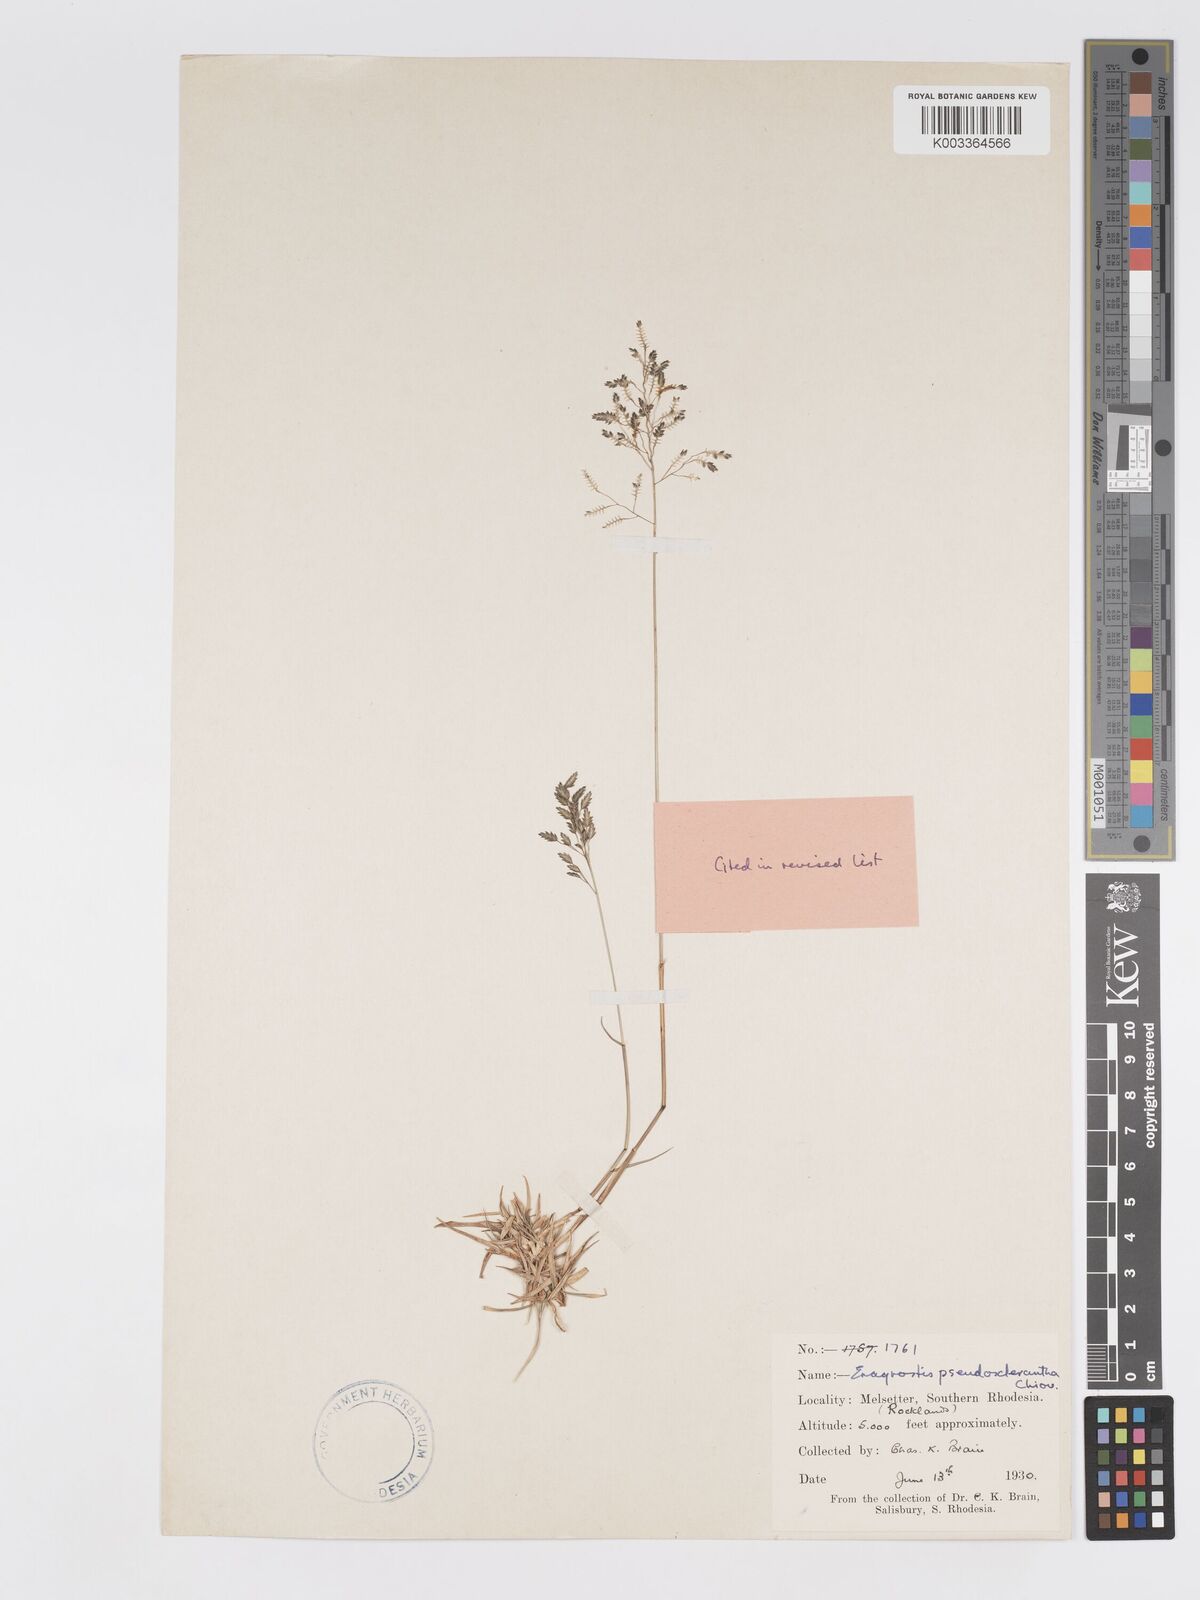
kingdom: Plantae
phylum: Tracheophyta
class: Liliopsida
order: Poales
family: Poaceae
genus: Eragrostis
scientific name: Eragrostis patentipilosa
